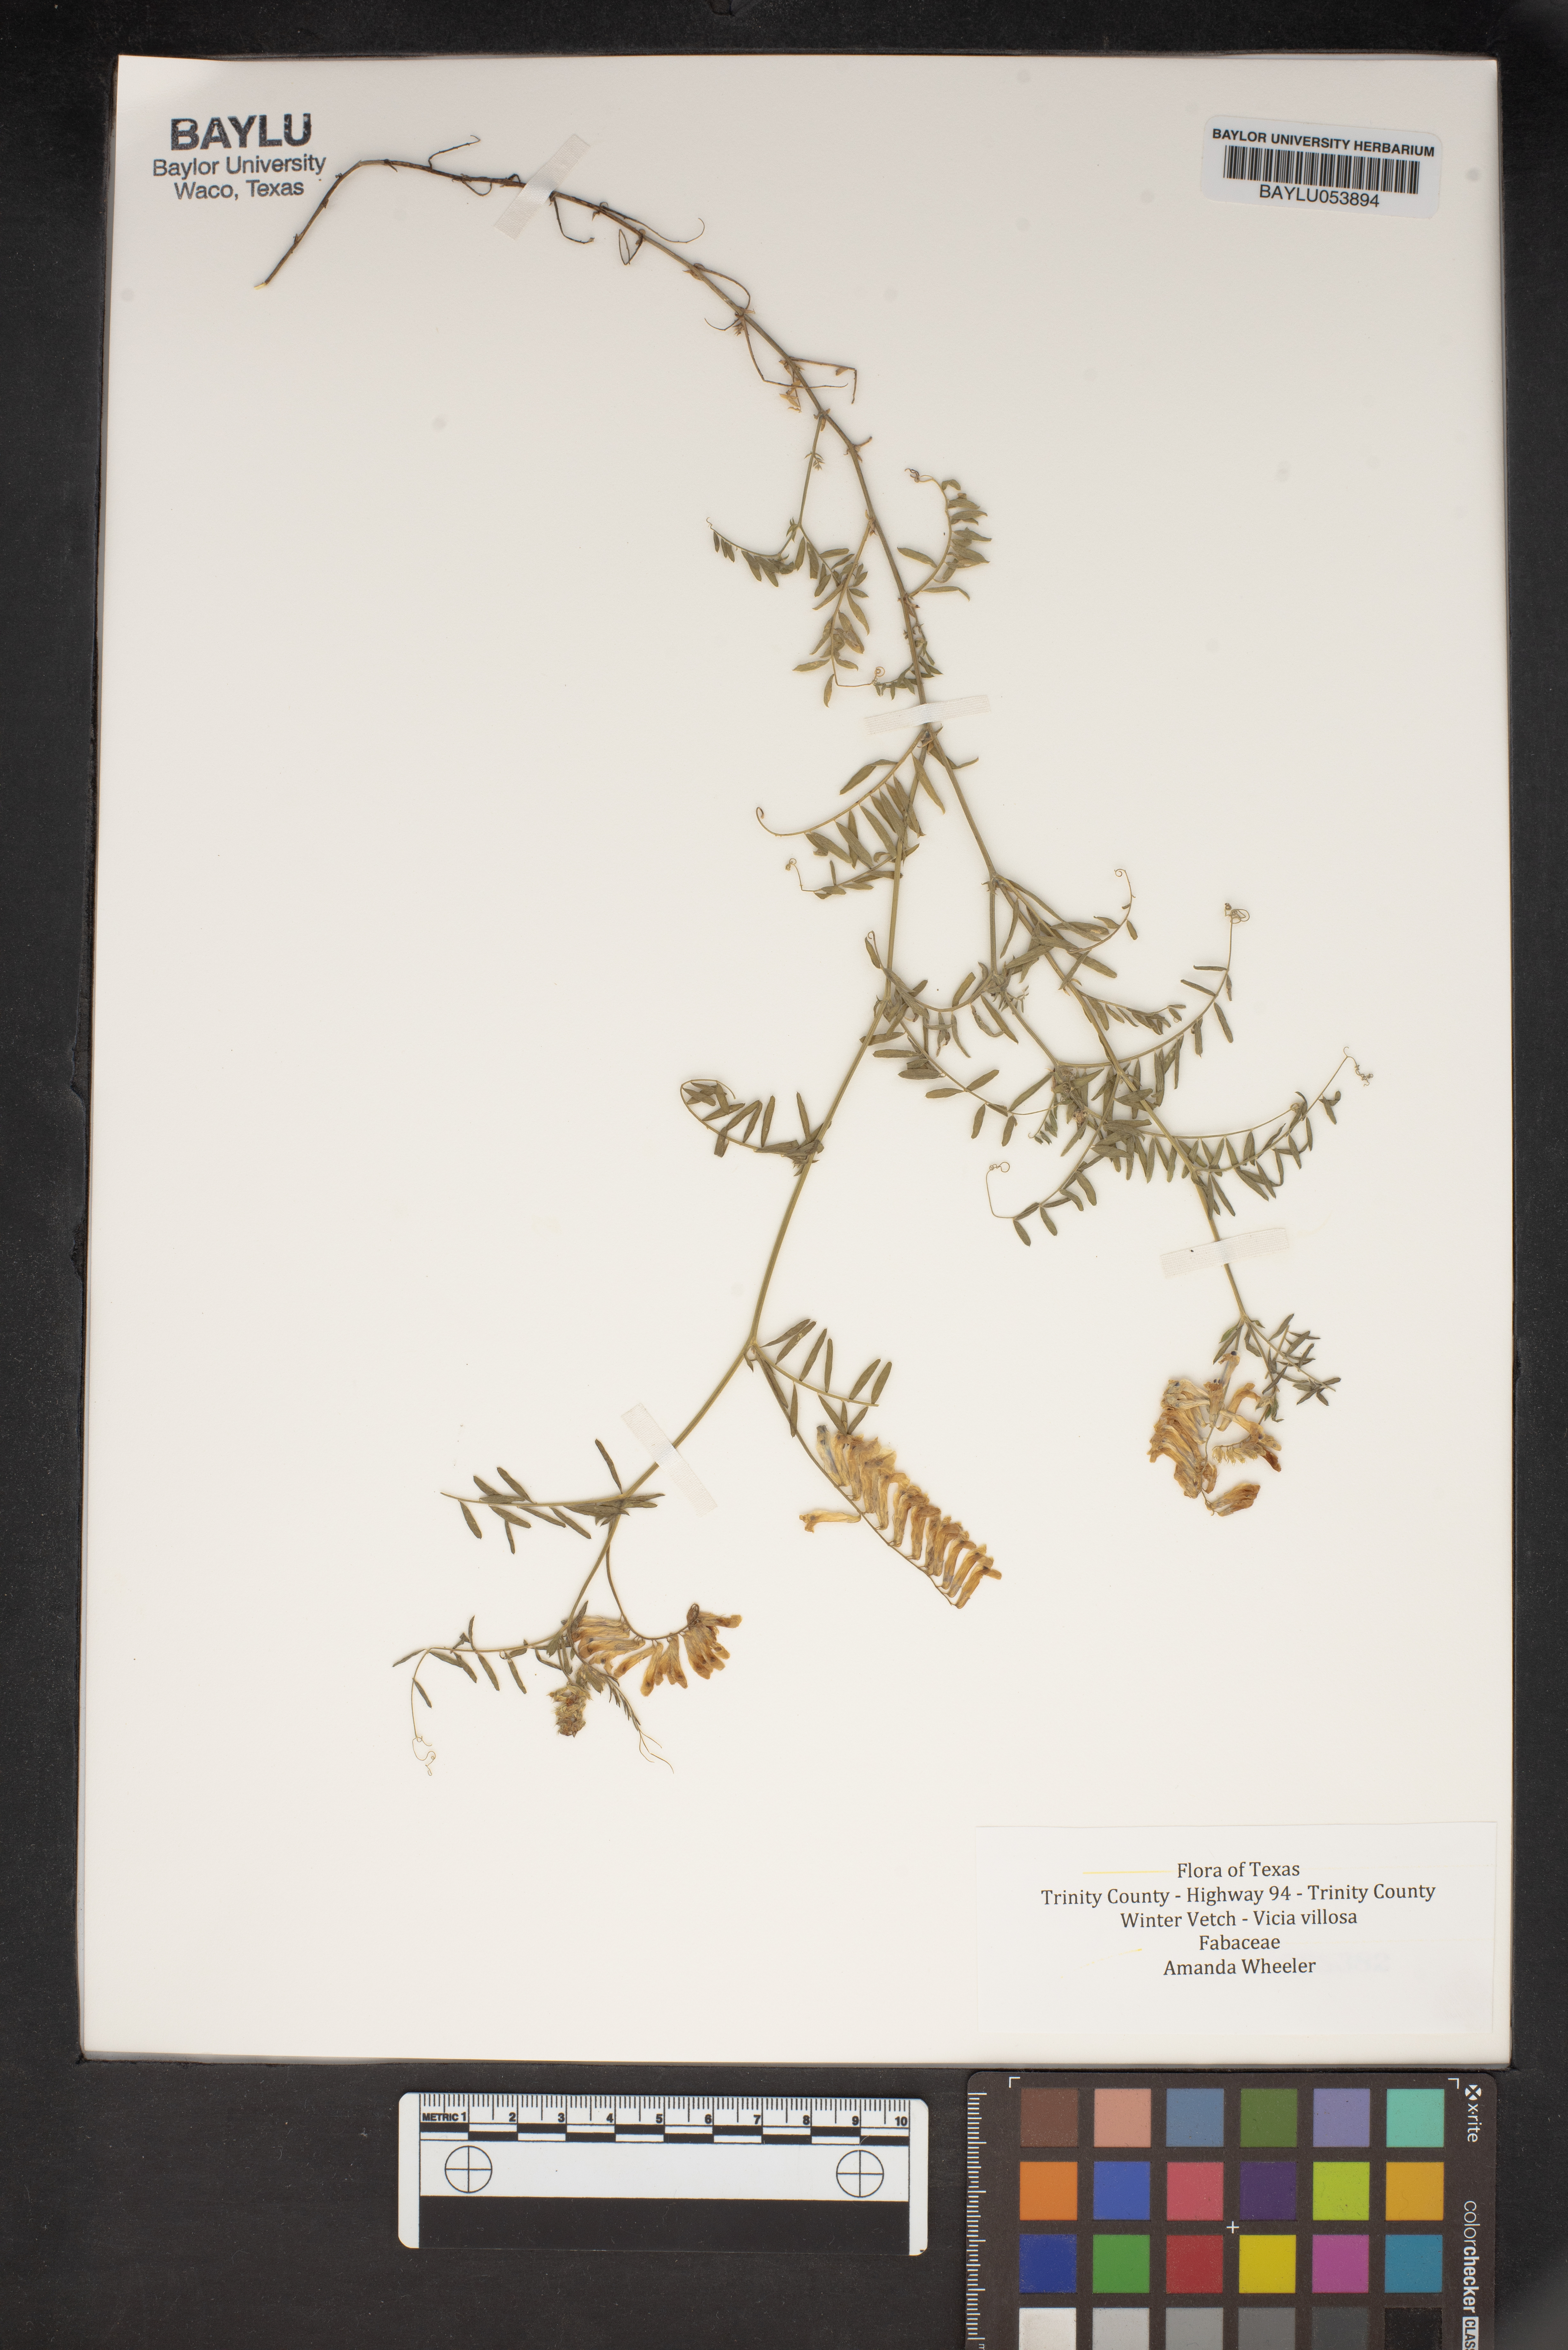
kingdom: Plantae
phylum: Tracheophyta
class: Magnoliopsida
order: Fabales
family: Fabaceae
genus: Vicia
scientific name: Vicia villosa
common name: Fodder vetch
